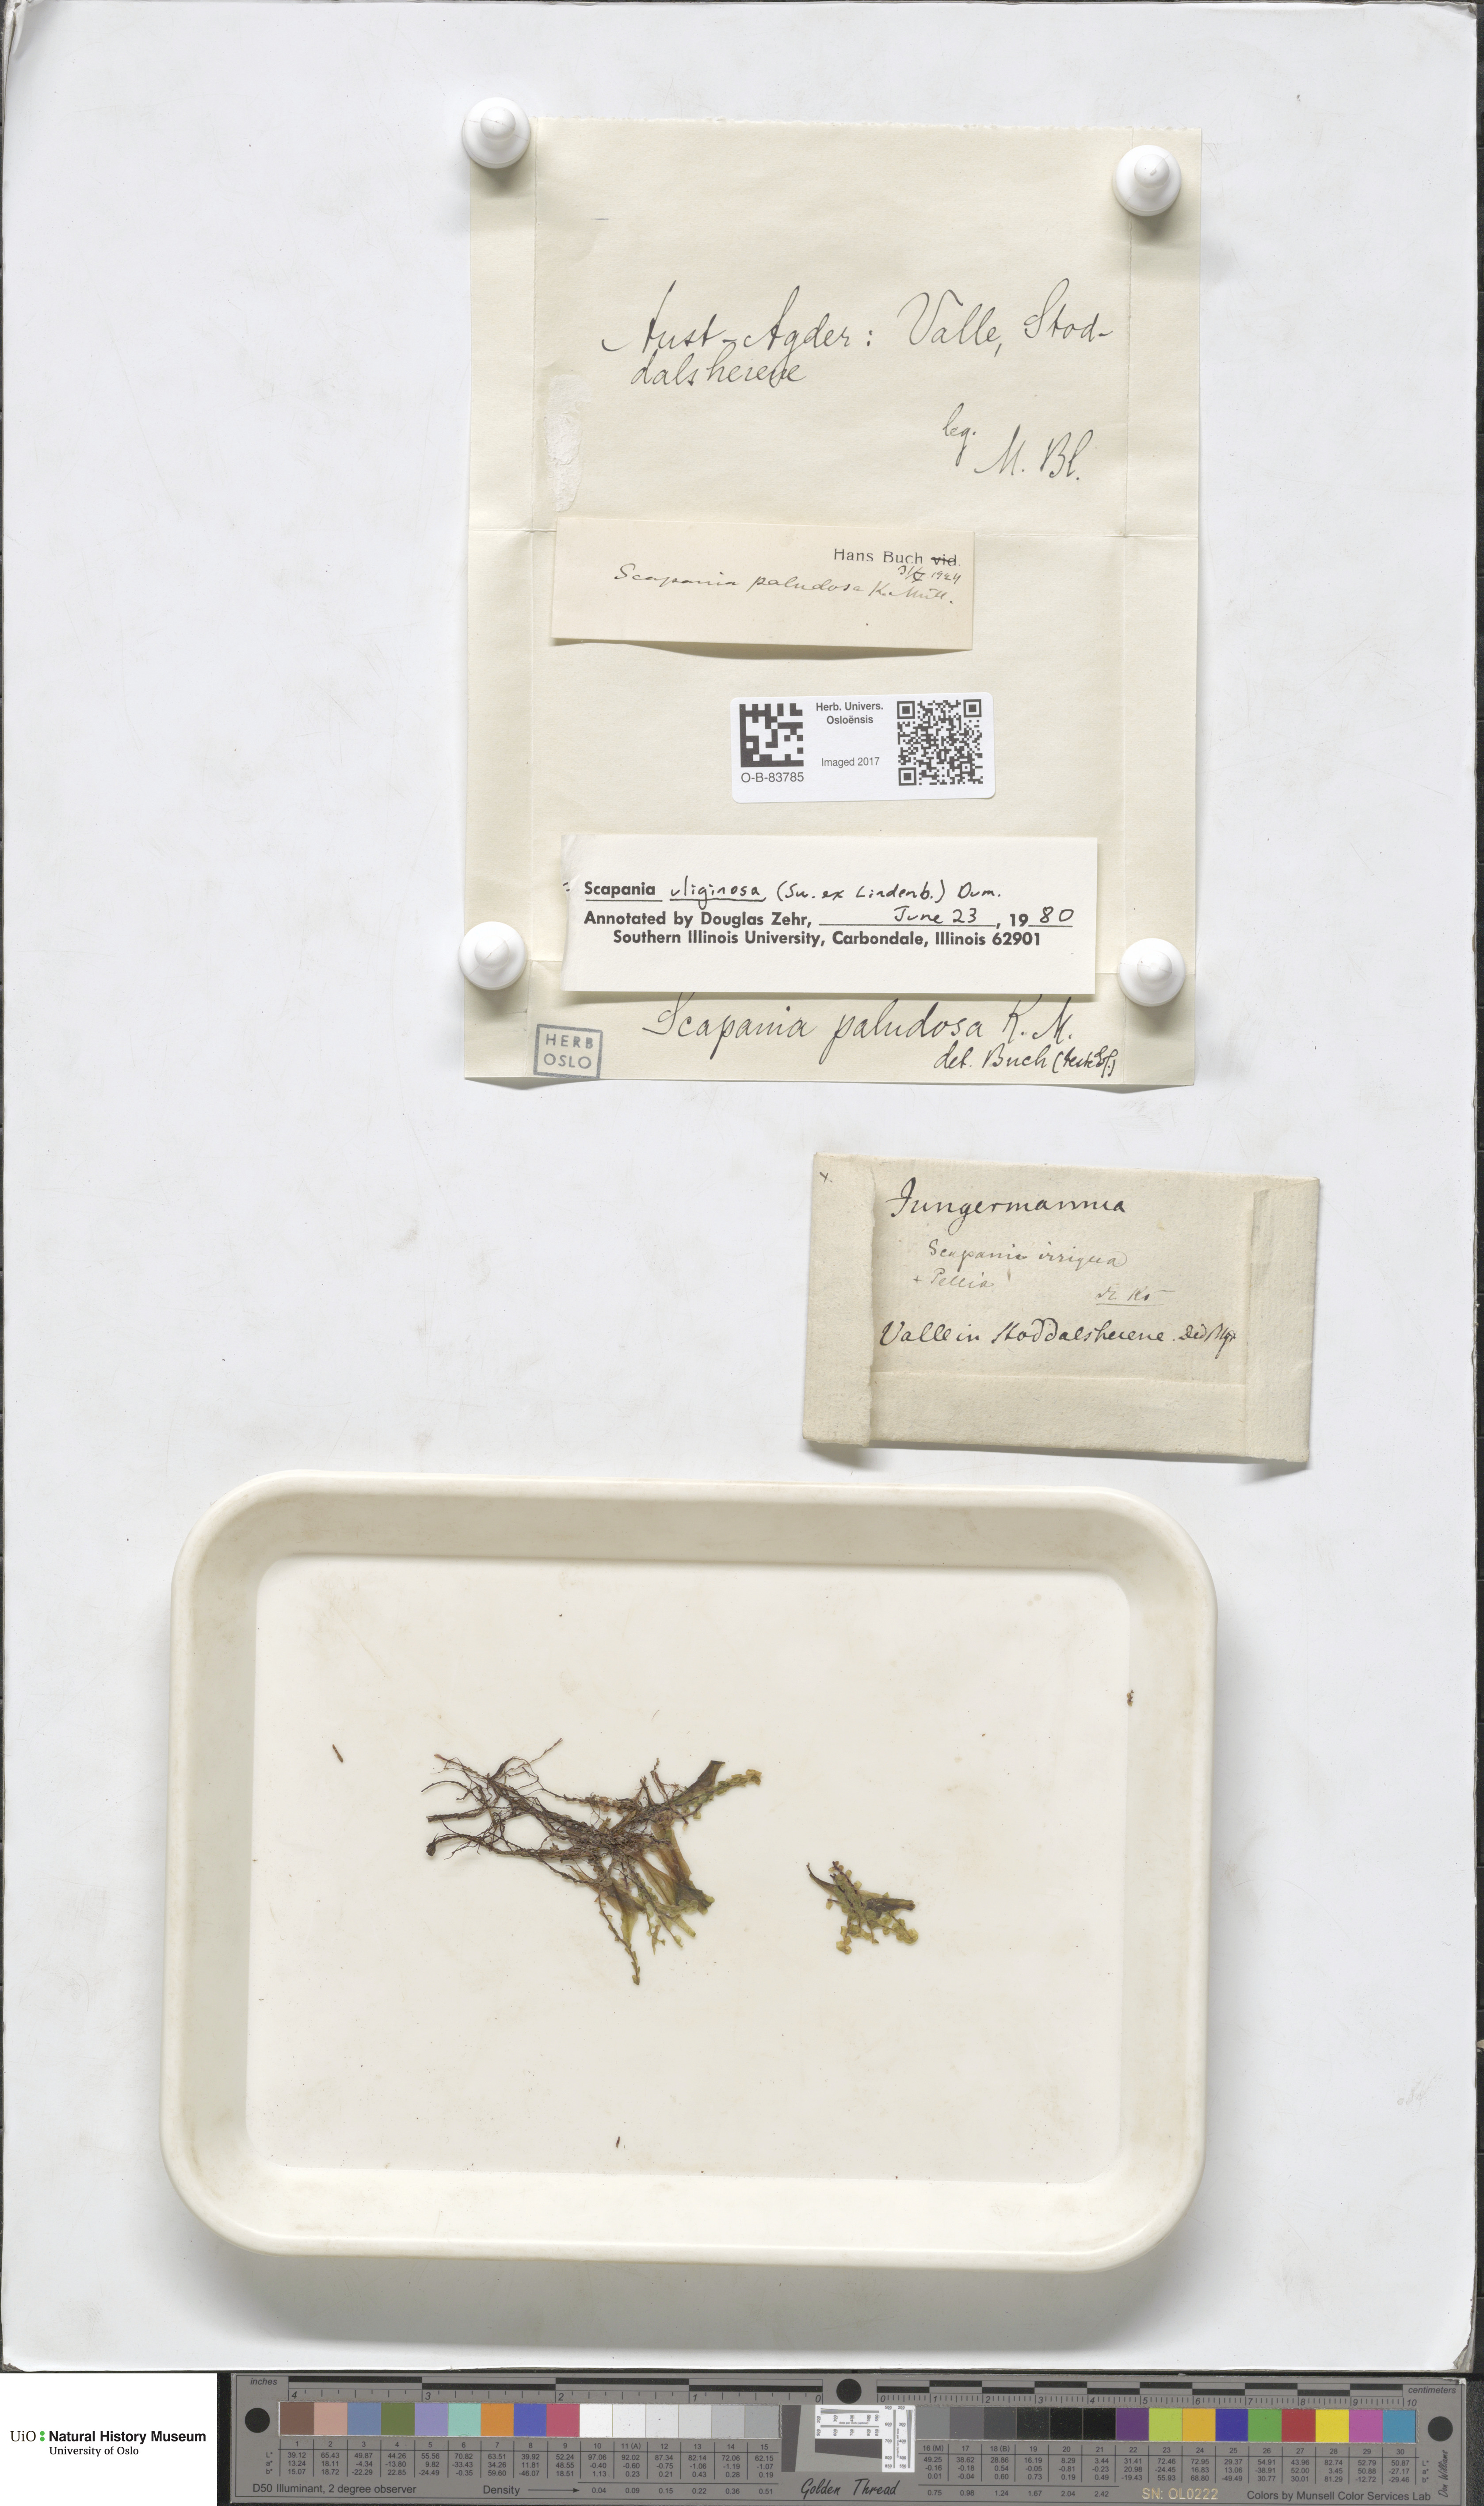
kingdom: Plantae
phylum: Marchantiophyta
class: Jungermanniopsida
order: Jungermanniales
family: Scapaniaceae
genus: Scapania
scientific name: Scapania uliginosa
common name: Marsh earwort
